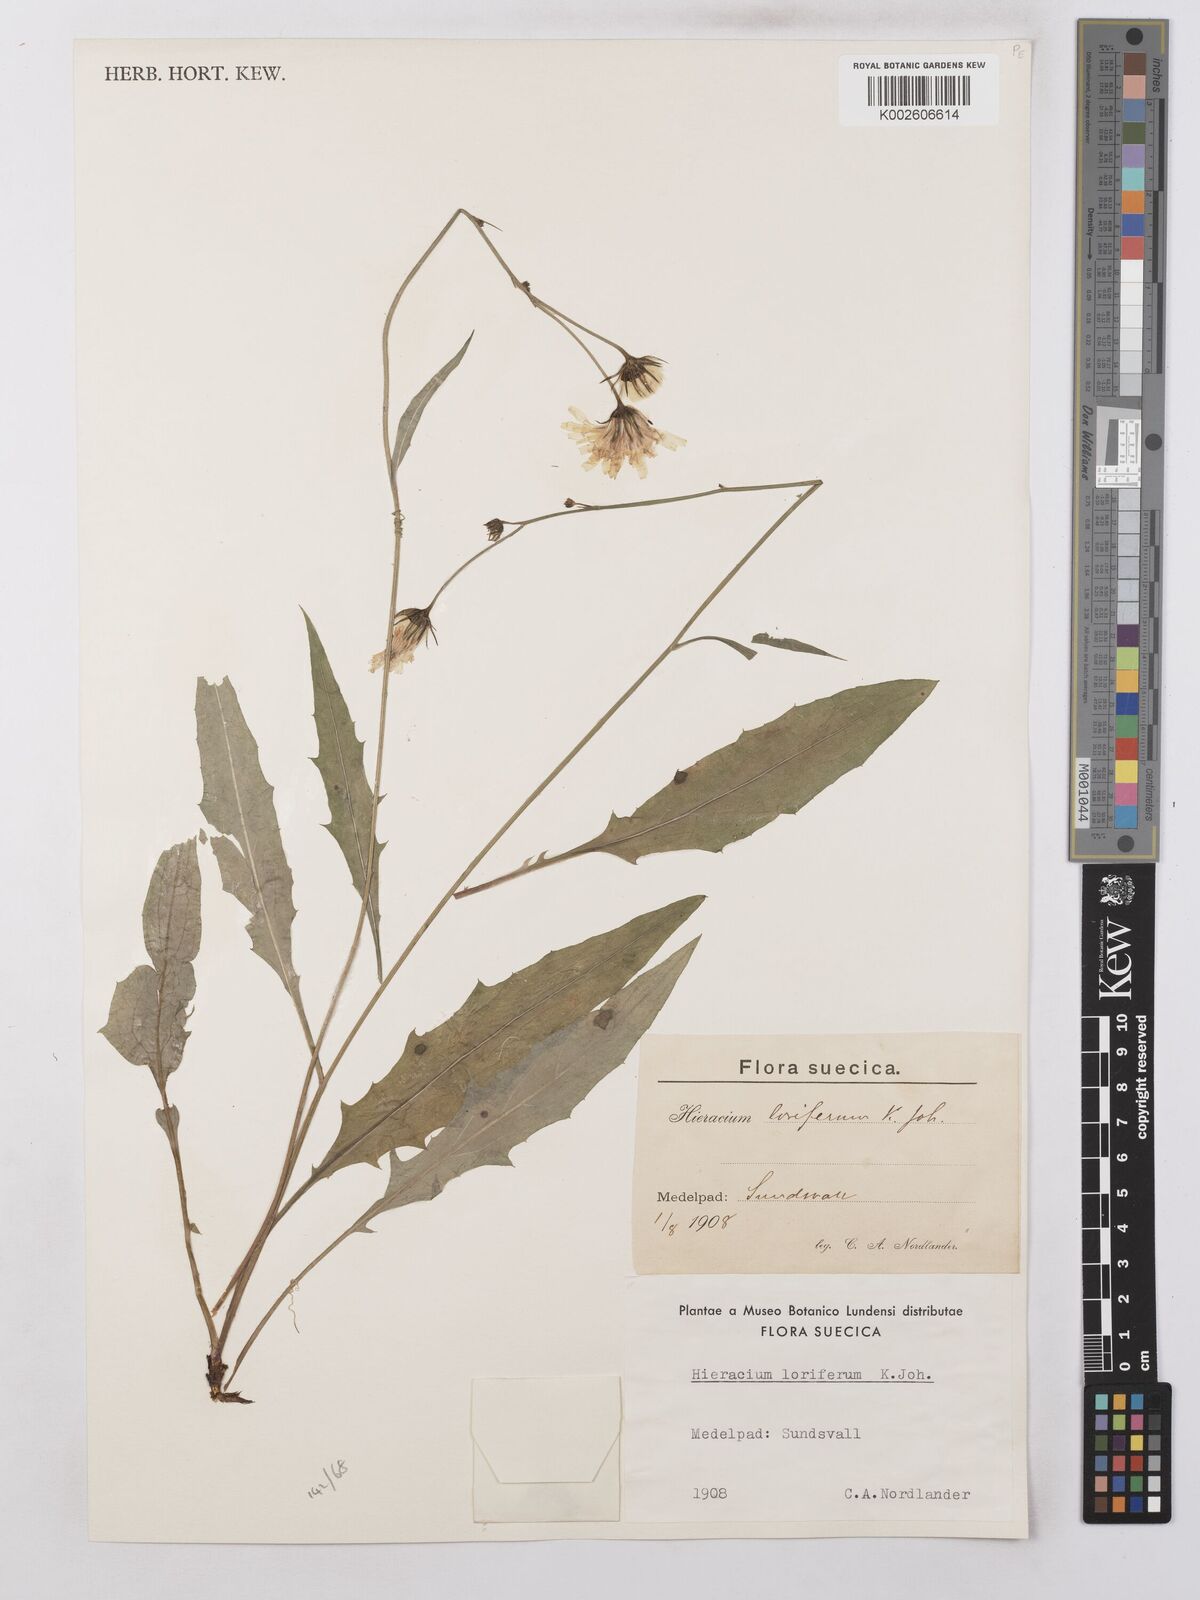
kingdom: Plantae
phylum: Tracheophyta
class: Magnoliopsida
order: Asterales
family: Asteraceae
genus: Hieracium
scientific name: Hieracium lachenalii
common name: Common hawkweed
